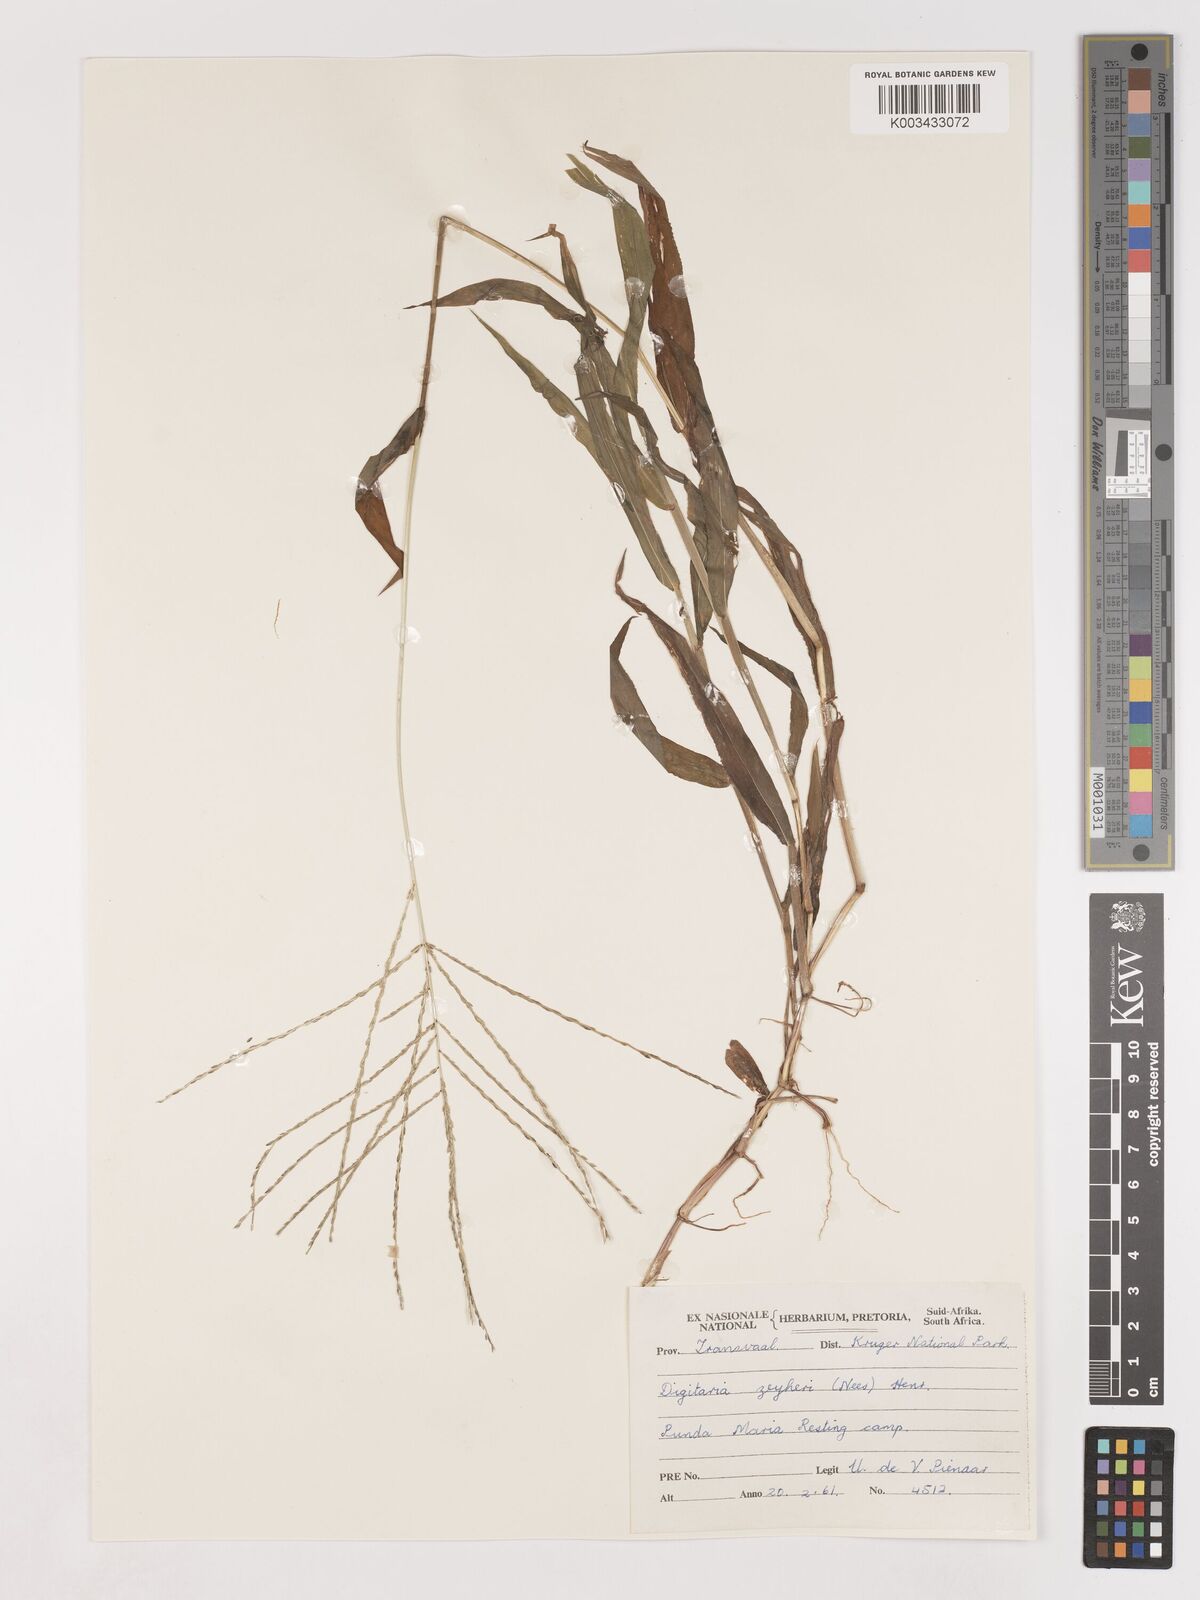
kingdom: Plantae
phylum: Tracheophyta
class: Liliopsida
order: Poales
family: Poaceae
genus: Digitaria
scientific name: Digitaria velutina
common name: Long-plume finger grass
